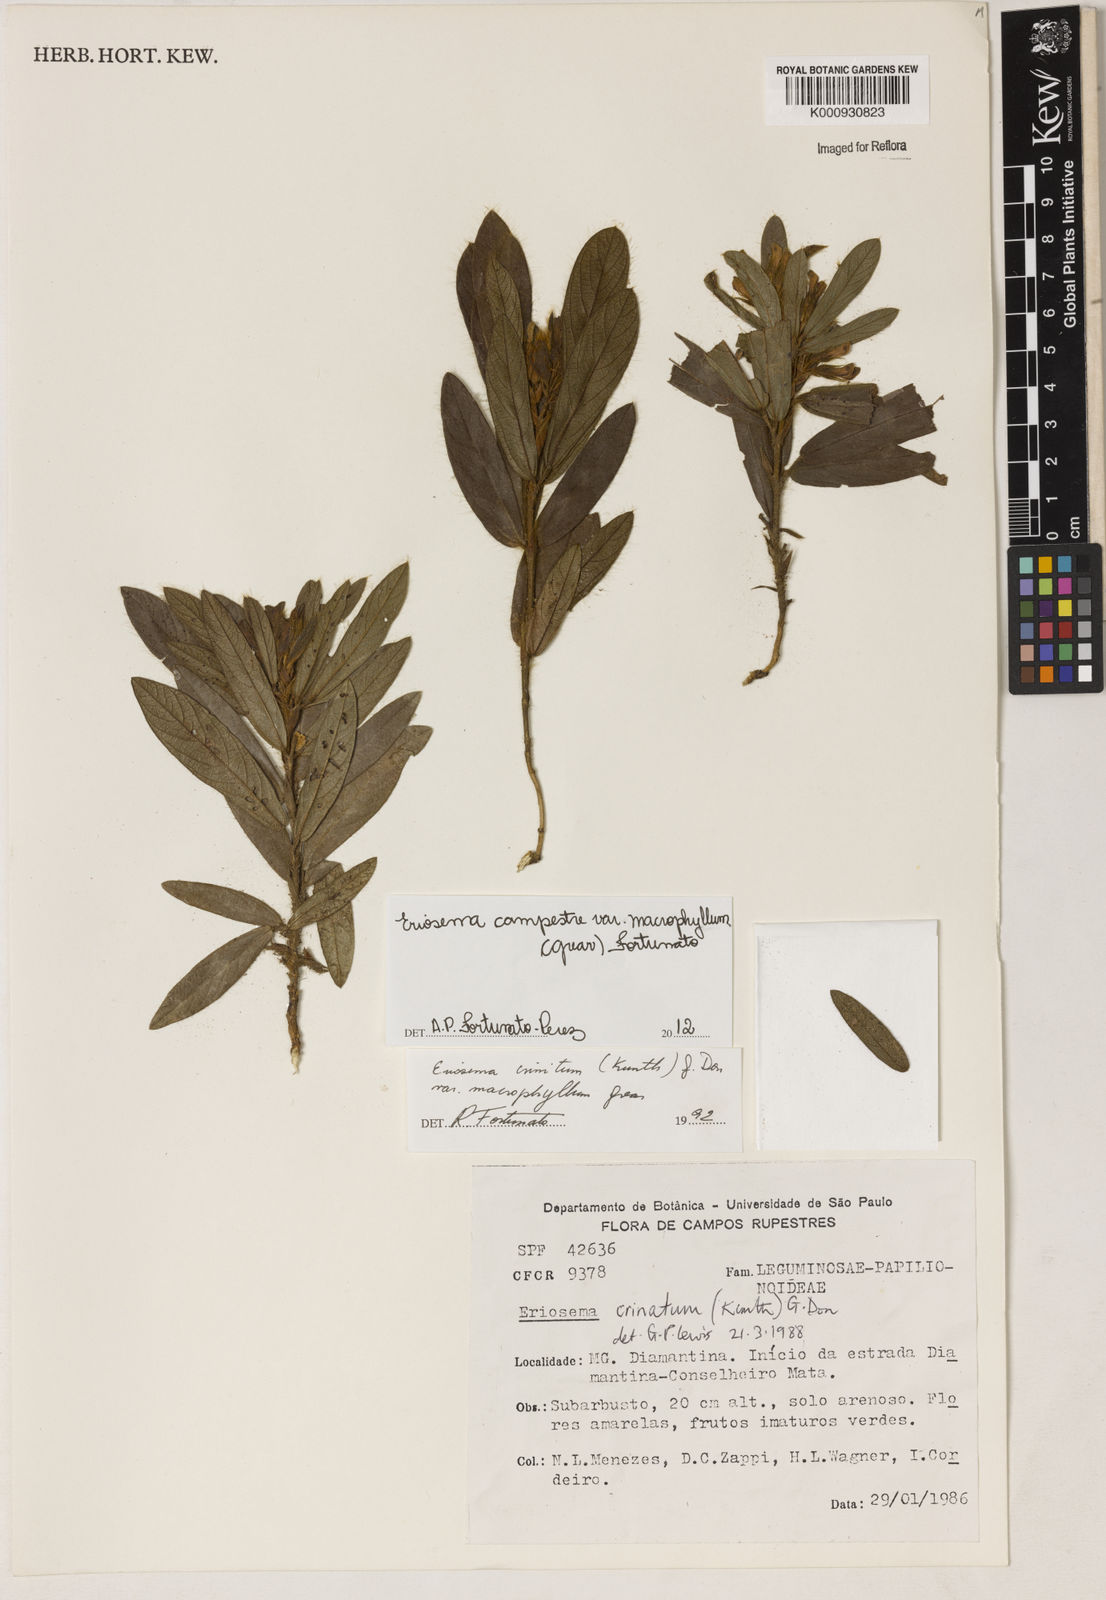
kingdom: Plantae
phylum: Tracheophyta
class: Magnoliopsida
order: Fabales
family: Fabaceae
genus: Eriosema
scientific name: Eriosema campestre
